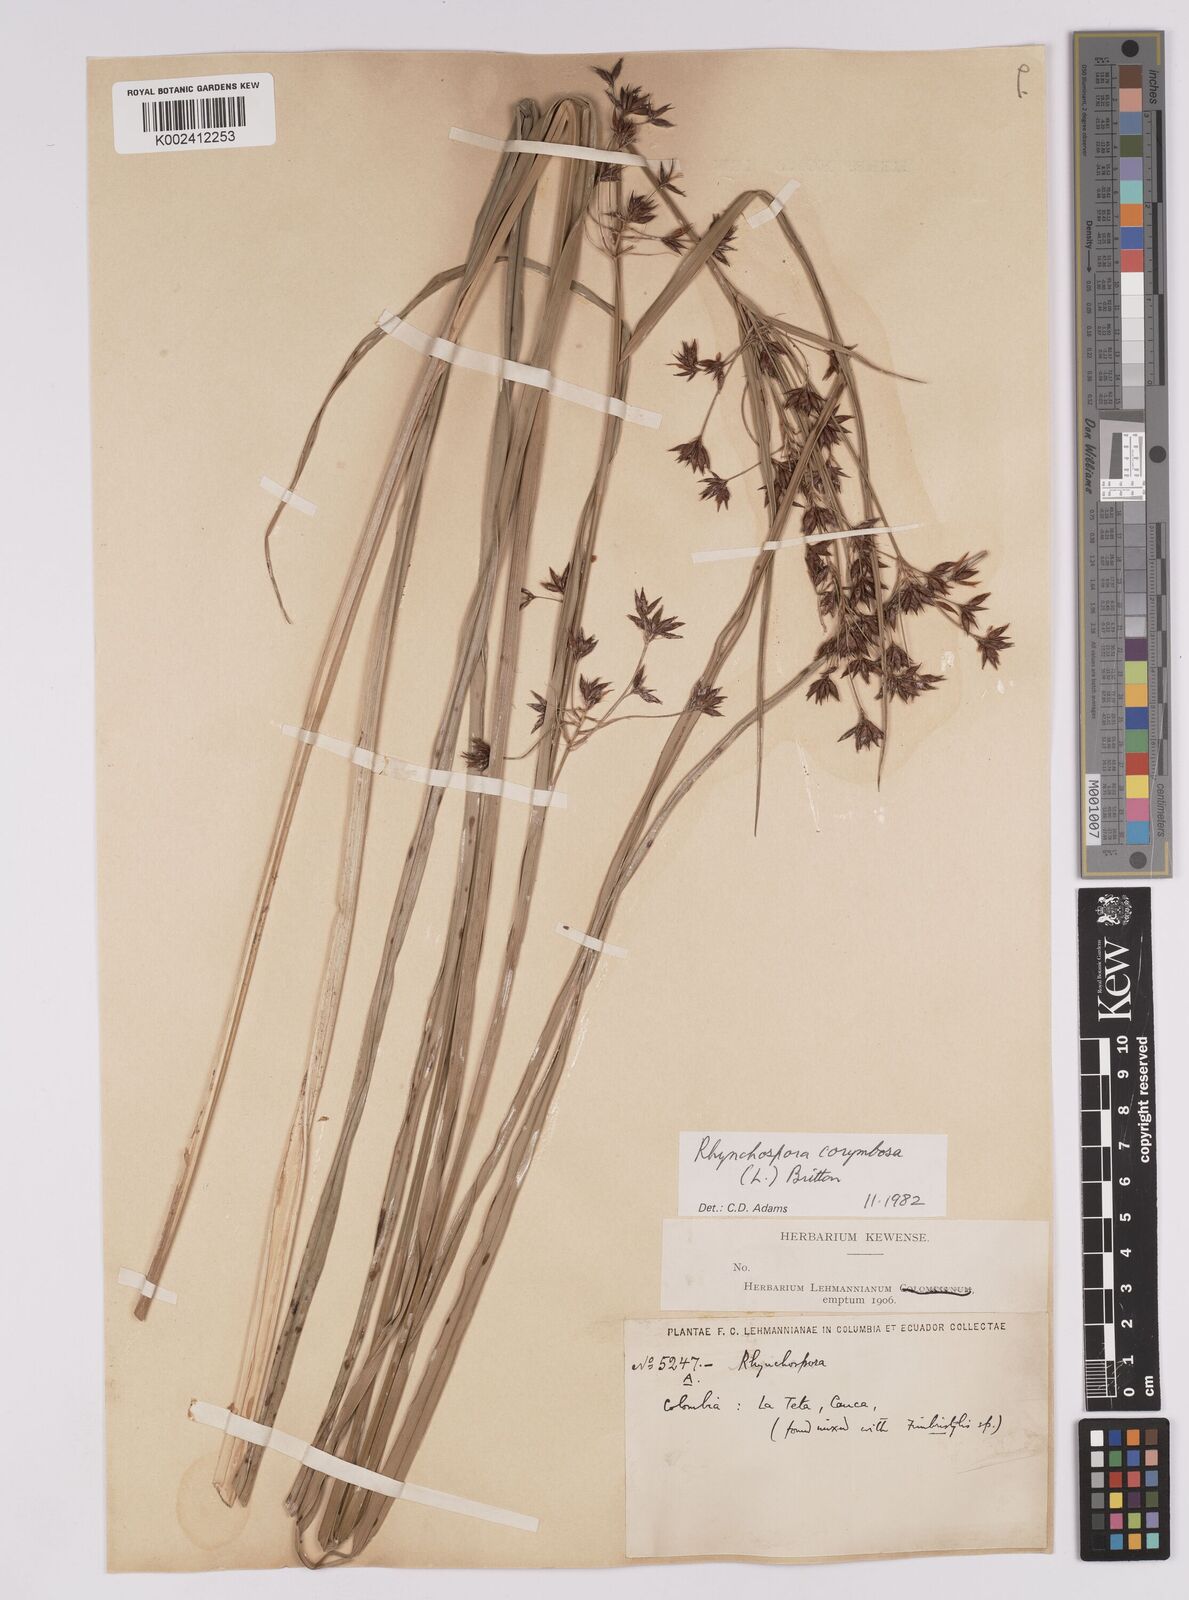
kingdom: Plantae
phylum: Tracheophyta
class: Liliopsida
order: Poales
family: Cyperaceae
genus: Rhynchospora
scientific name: Rhynchospora corymbosa
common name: Golden beak sedge
